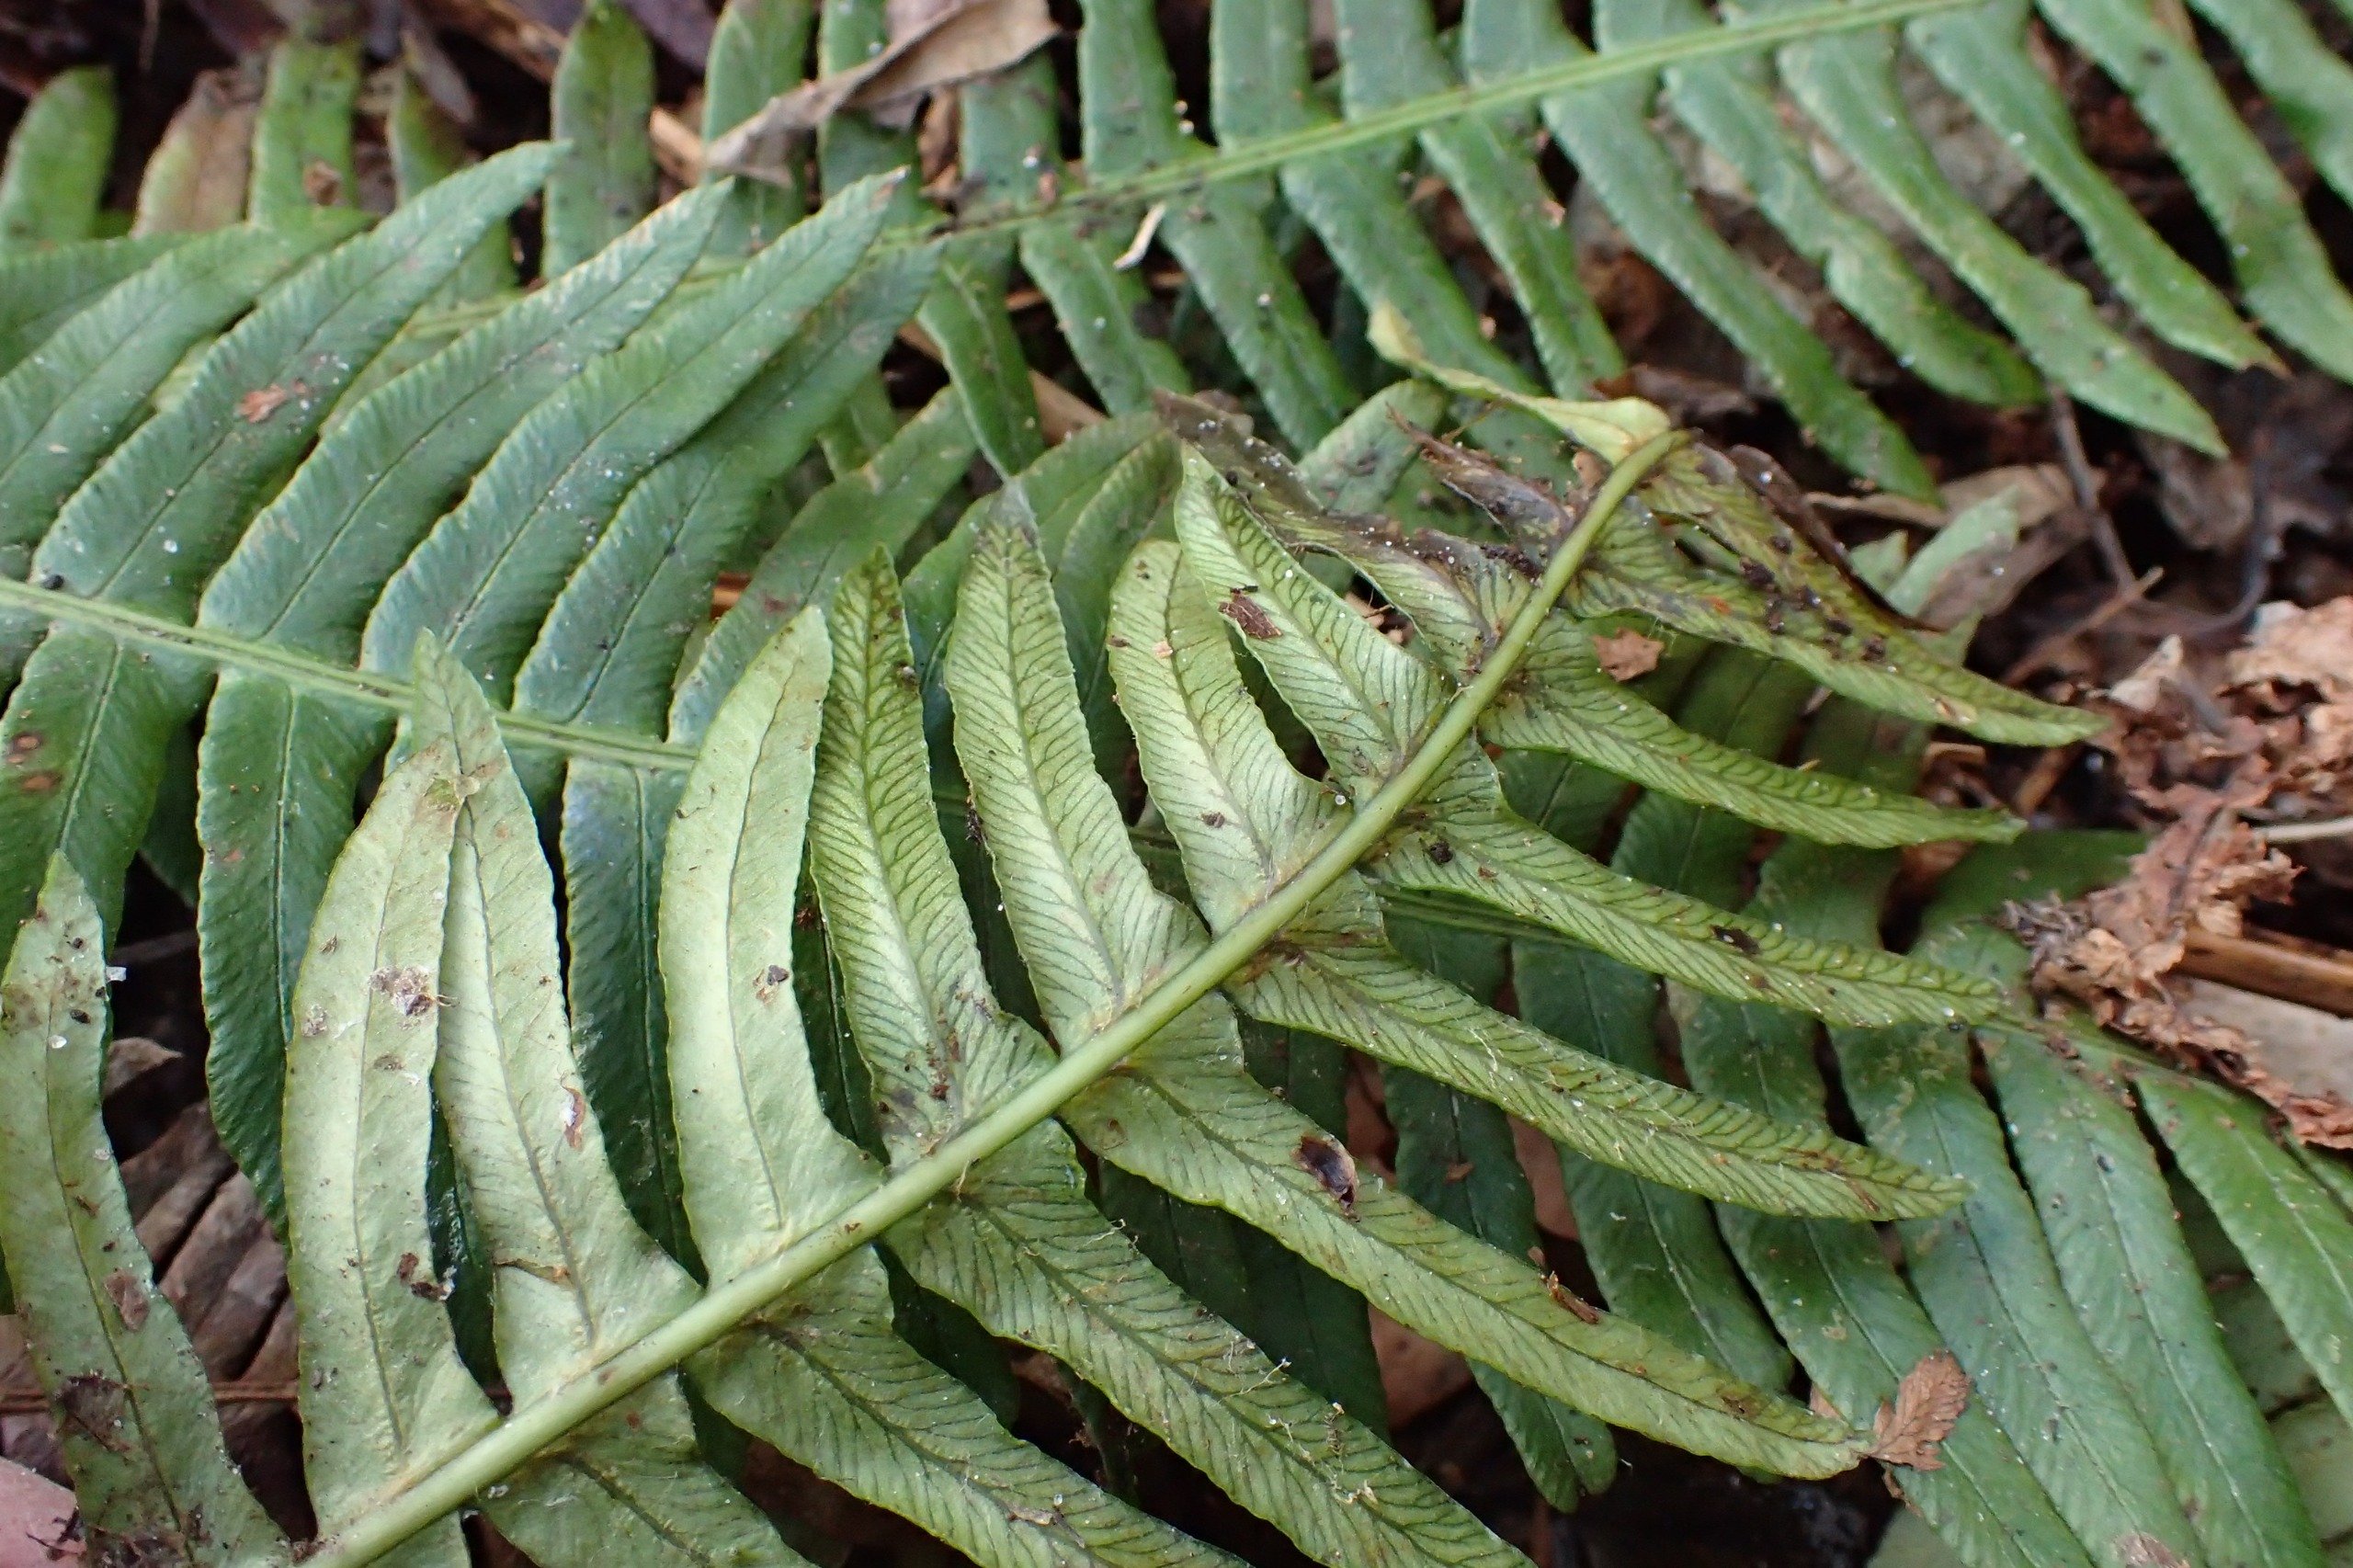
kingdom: Plantae
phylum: Tracheophyta
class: Polypodiopsida
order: Polypodiales
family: Blechnaceae
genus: Struthiopteris
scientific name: Struthiopteris spicant
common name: Kambregne
